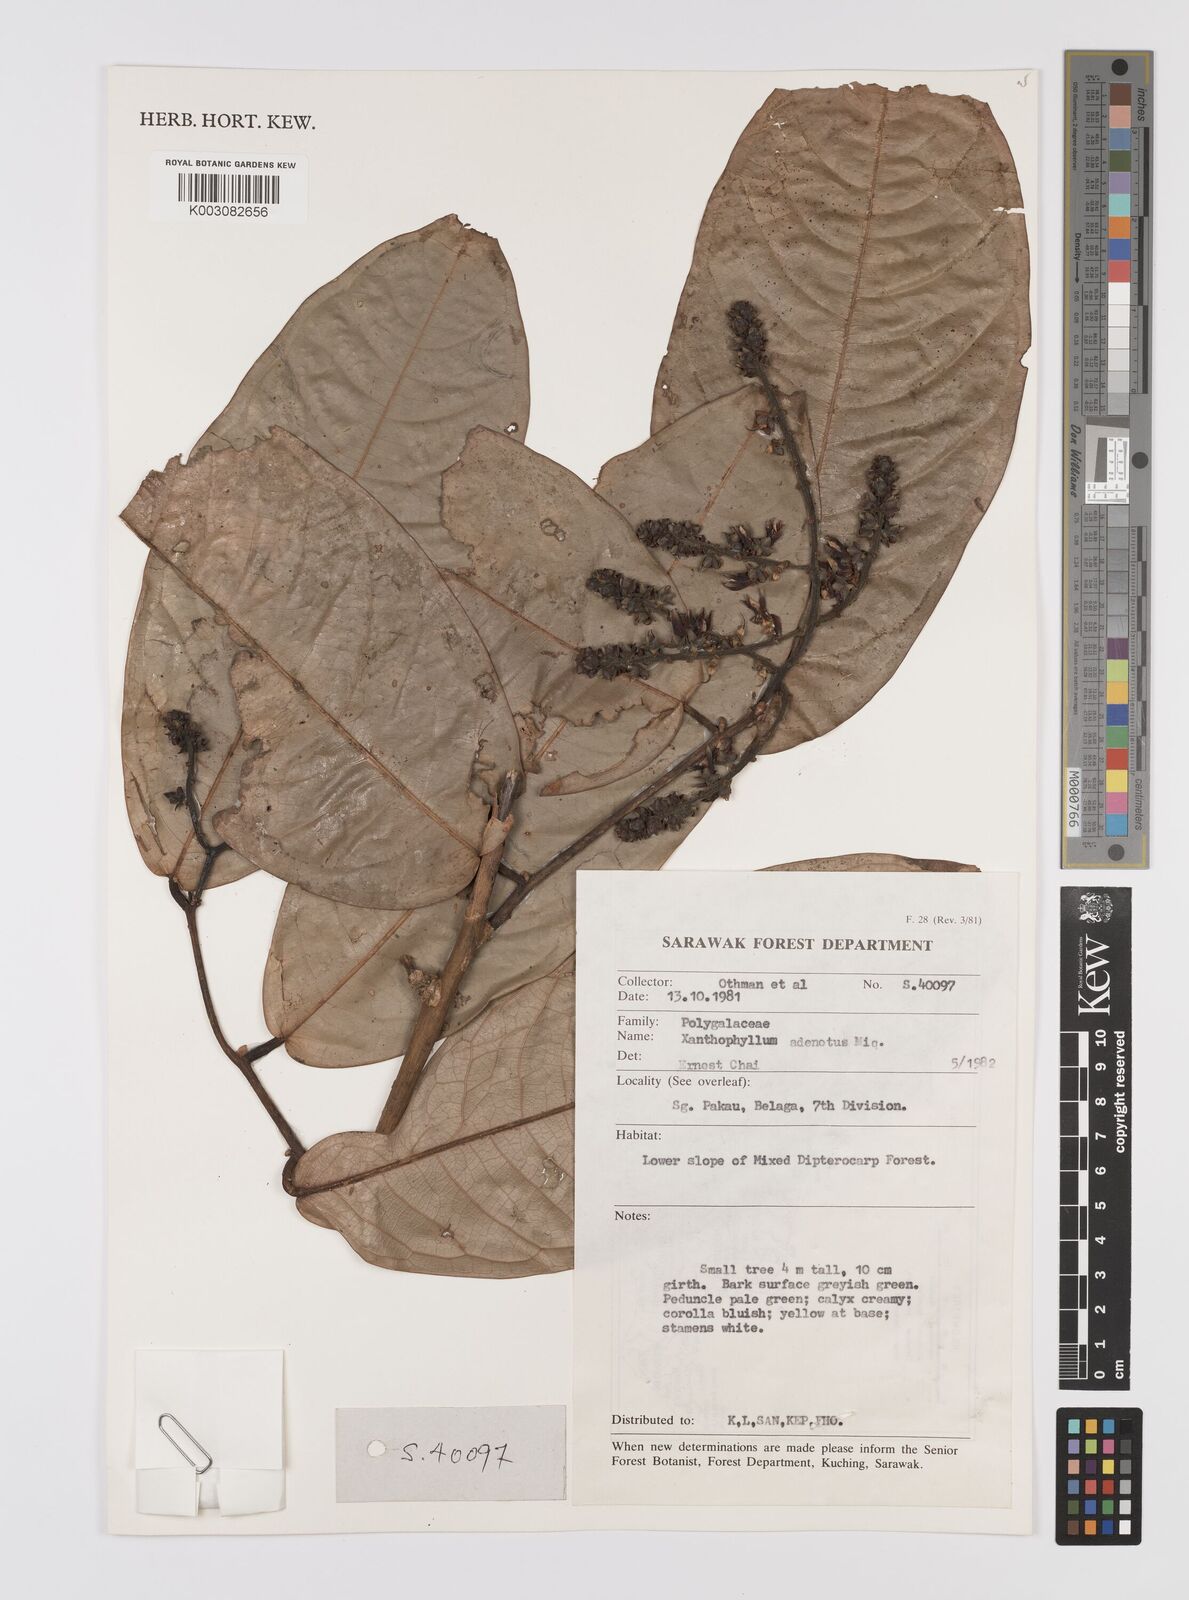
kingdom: Plantae
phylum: Tracheophyta
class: Magnoliopsida
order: Fabales
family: Polygalaceae
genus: Xanthophyllum
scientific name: Xanthophyllum adenotus
